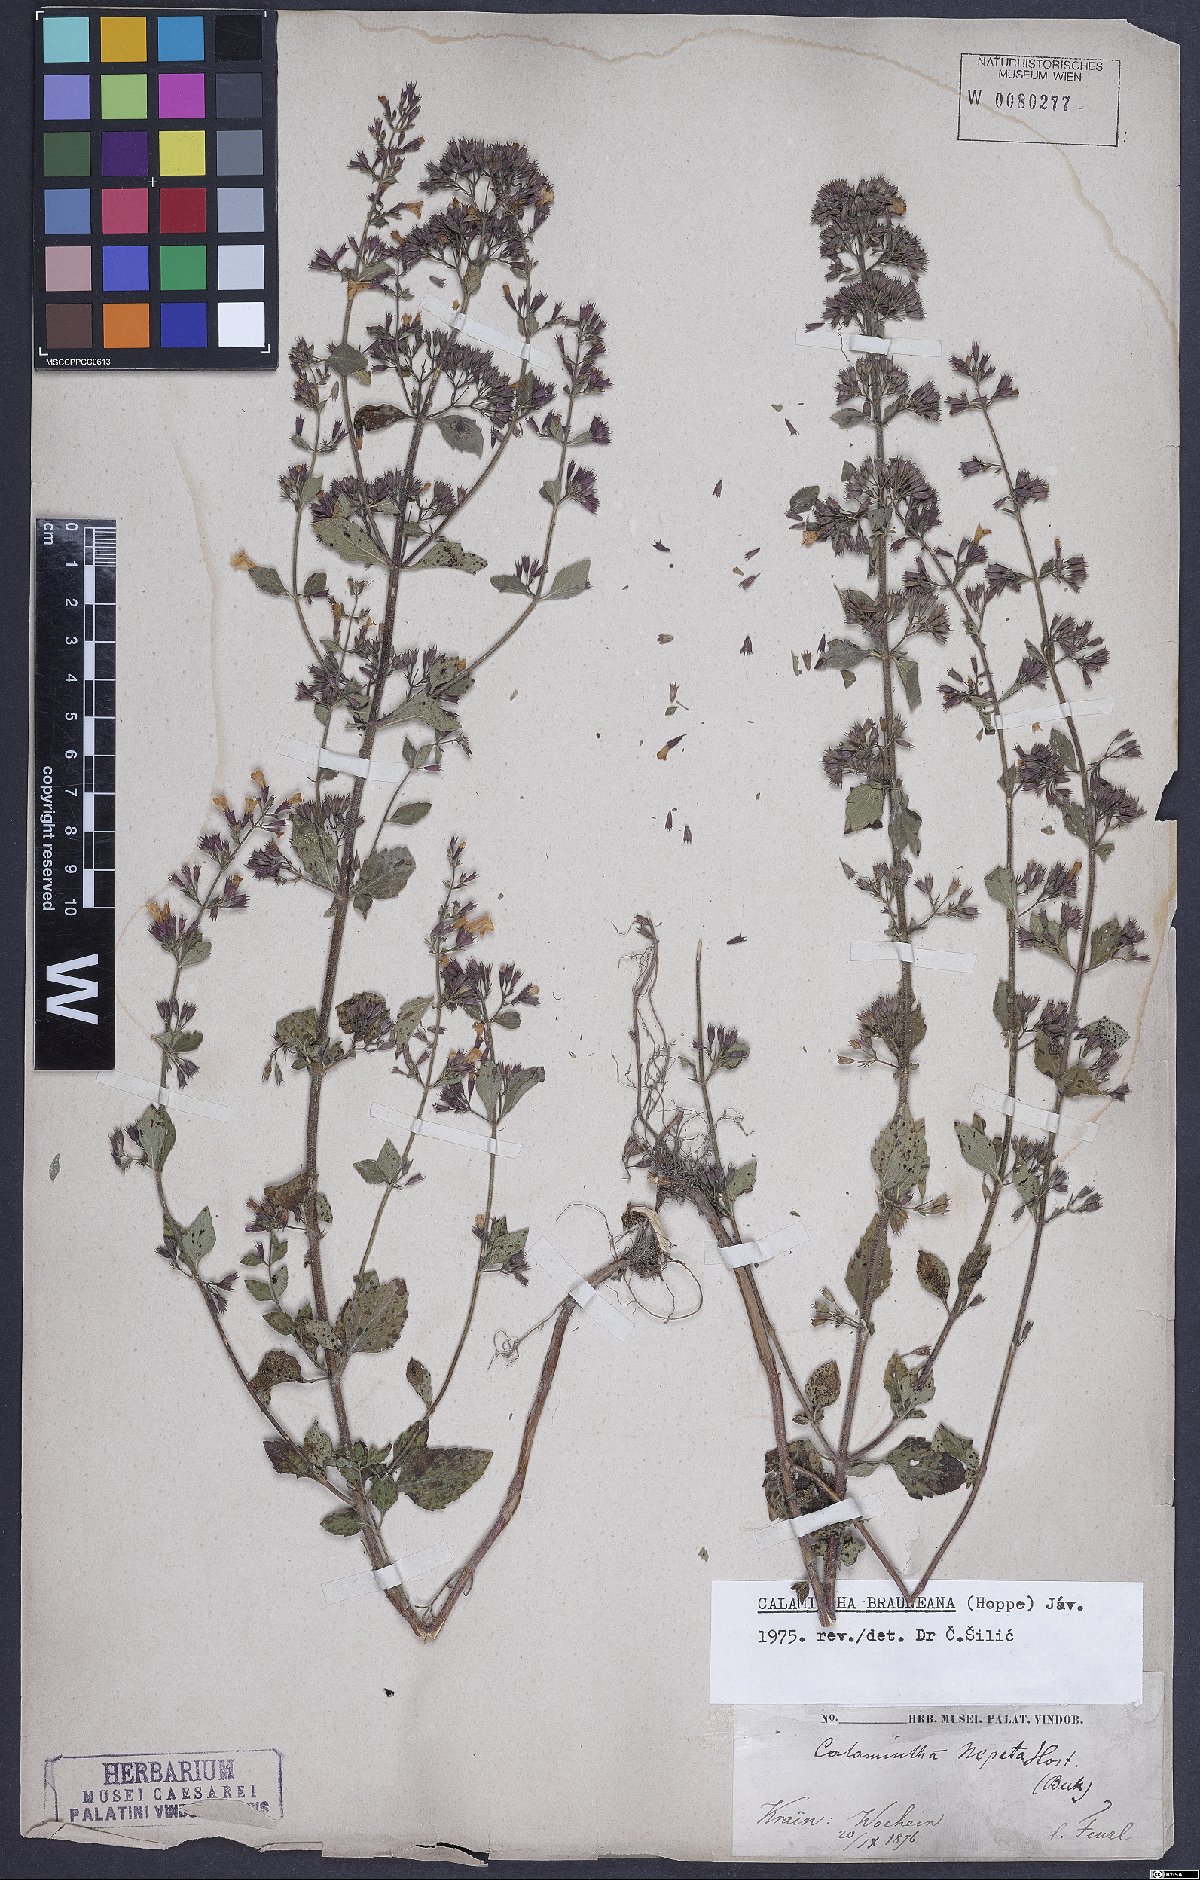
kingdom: Plantae
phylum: Tracheophyta
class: Magnoliopsida
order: Lamiales
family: Lamiaceae
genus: Clinopodium
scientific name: Clinopodium nepeta
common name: Lesser calamint
